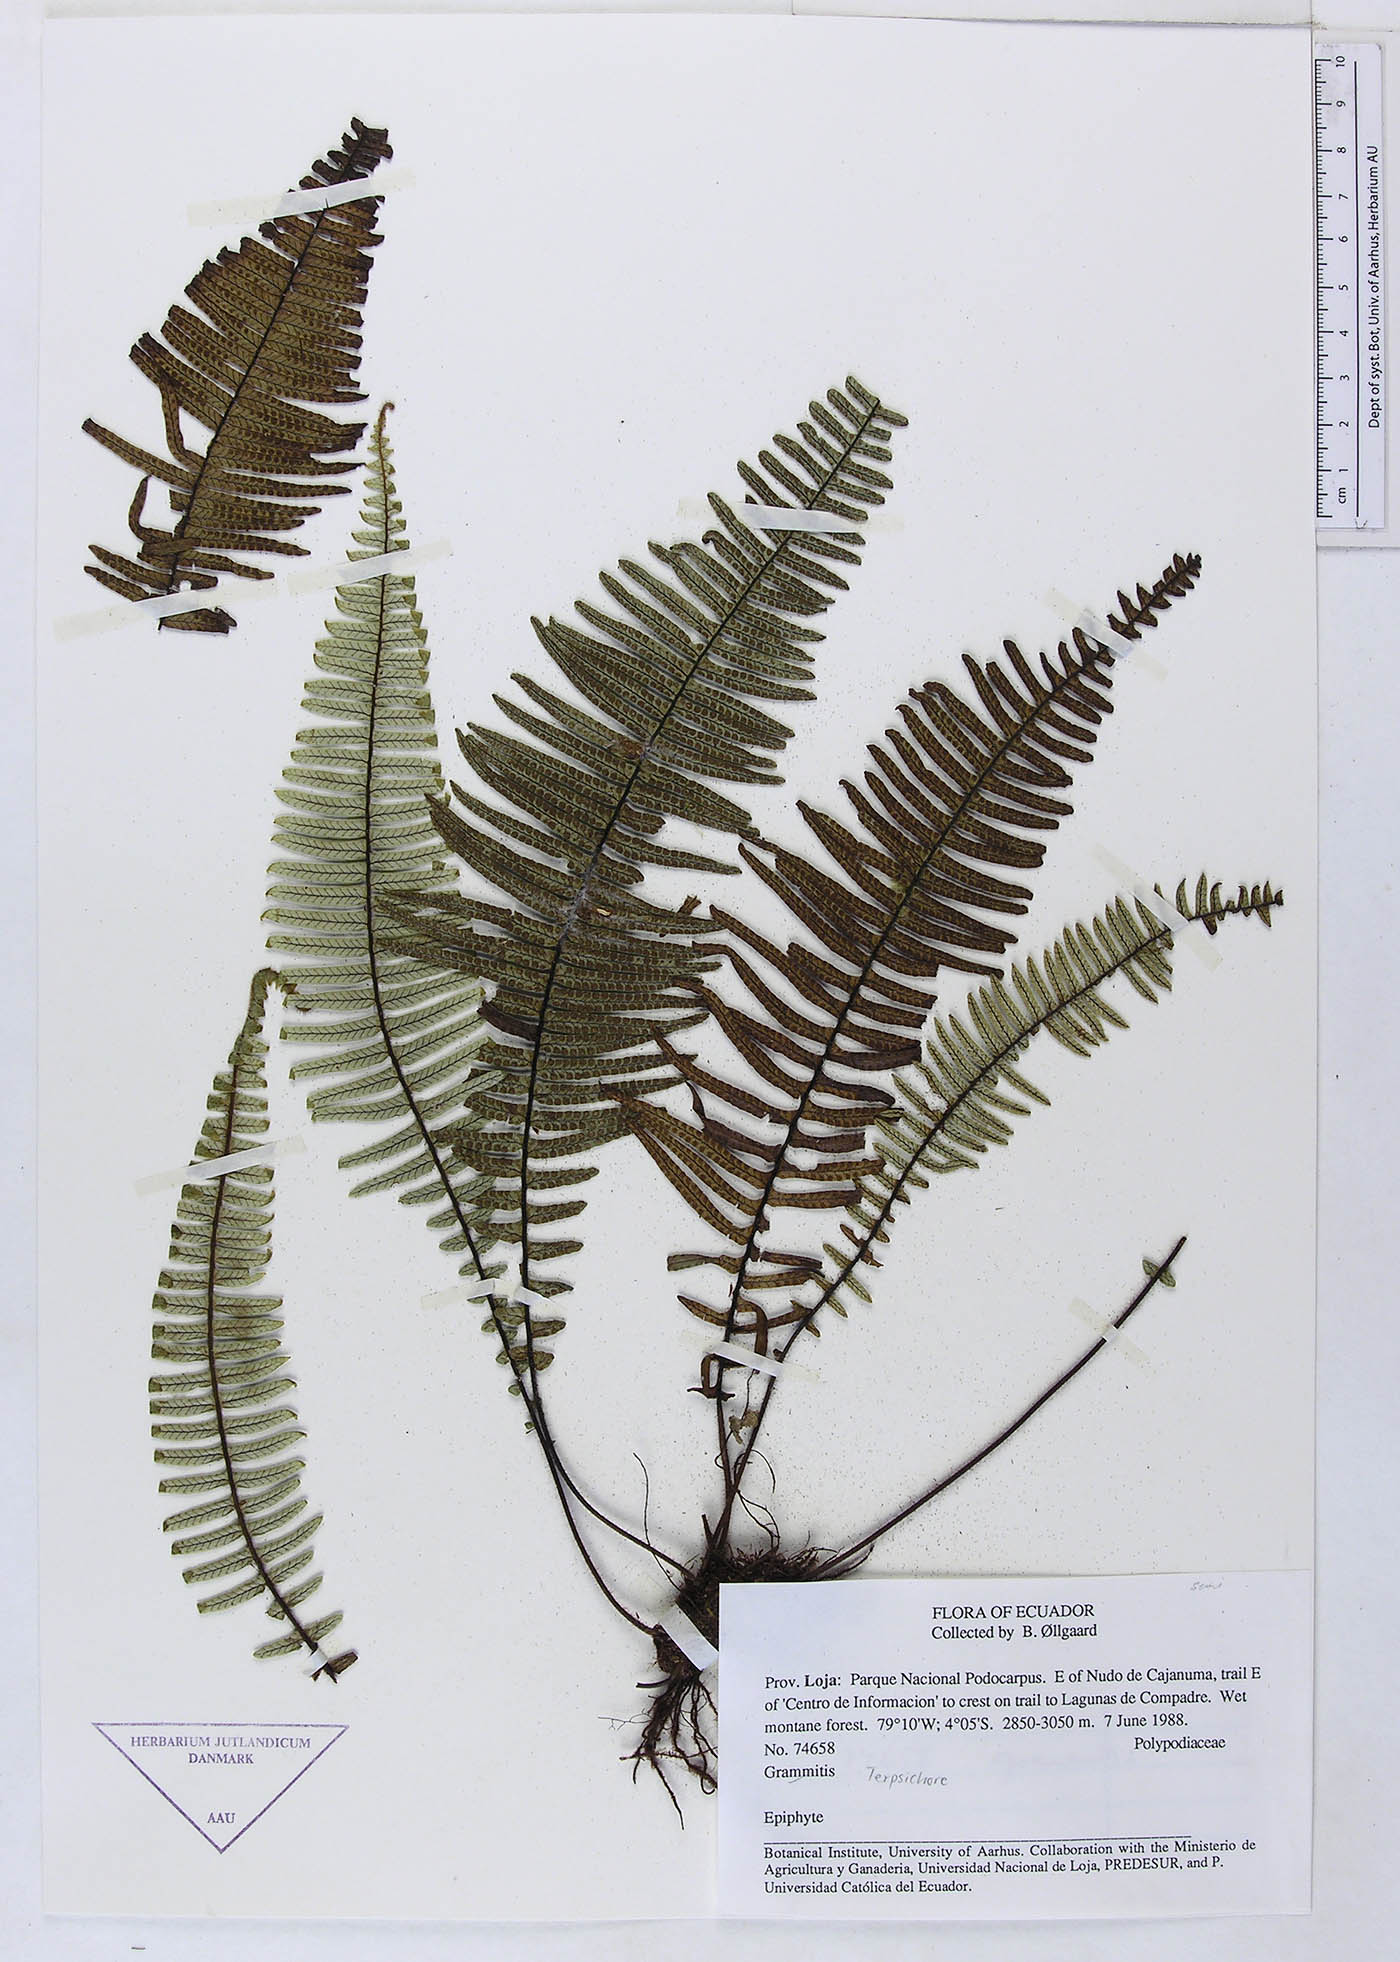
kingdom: Plantae
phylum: Tracheophyta
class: Polypodiopsida
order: Polypodiales
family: Polypodiaceae
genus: Grammitis
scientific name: Grammitis
